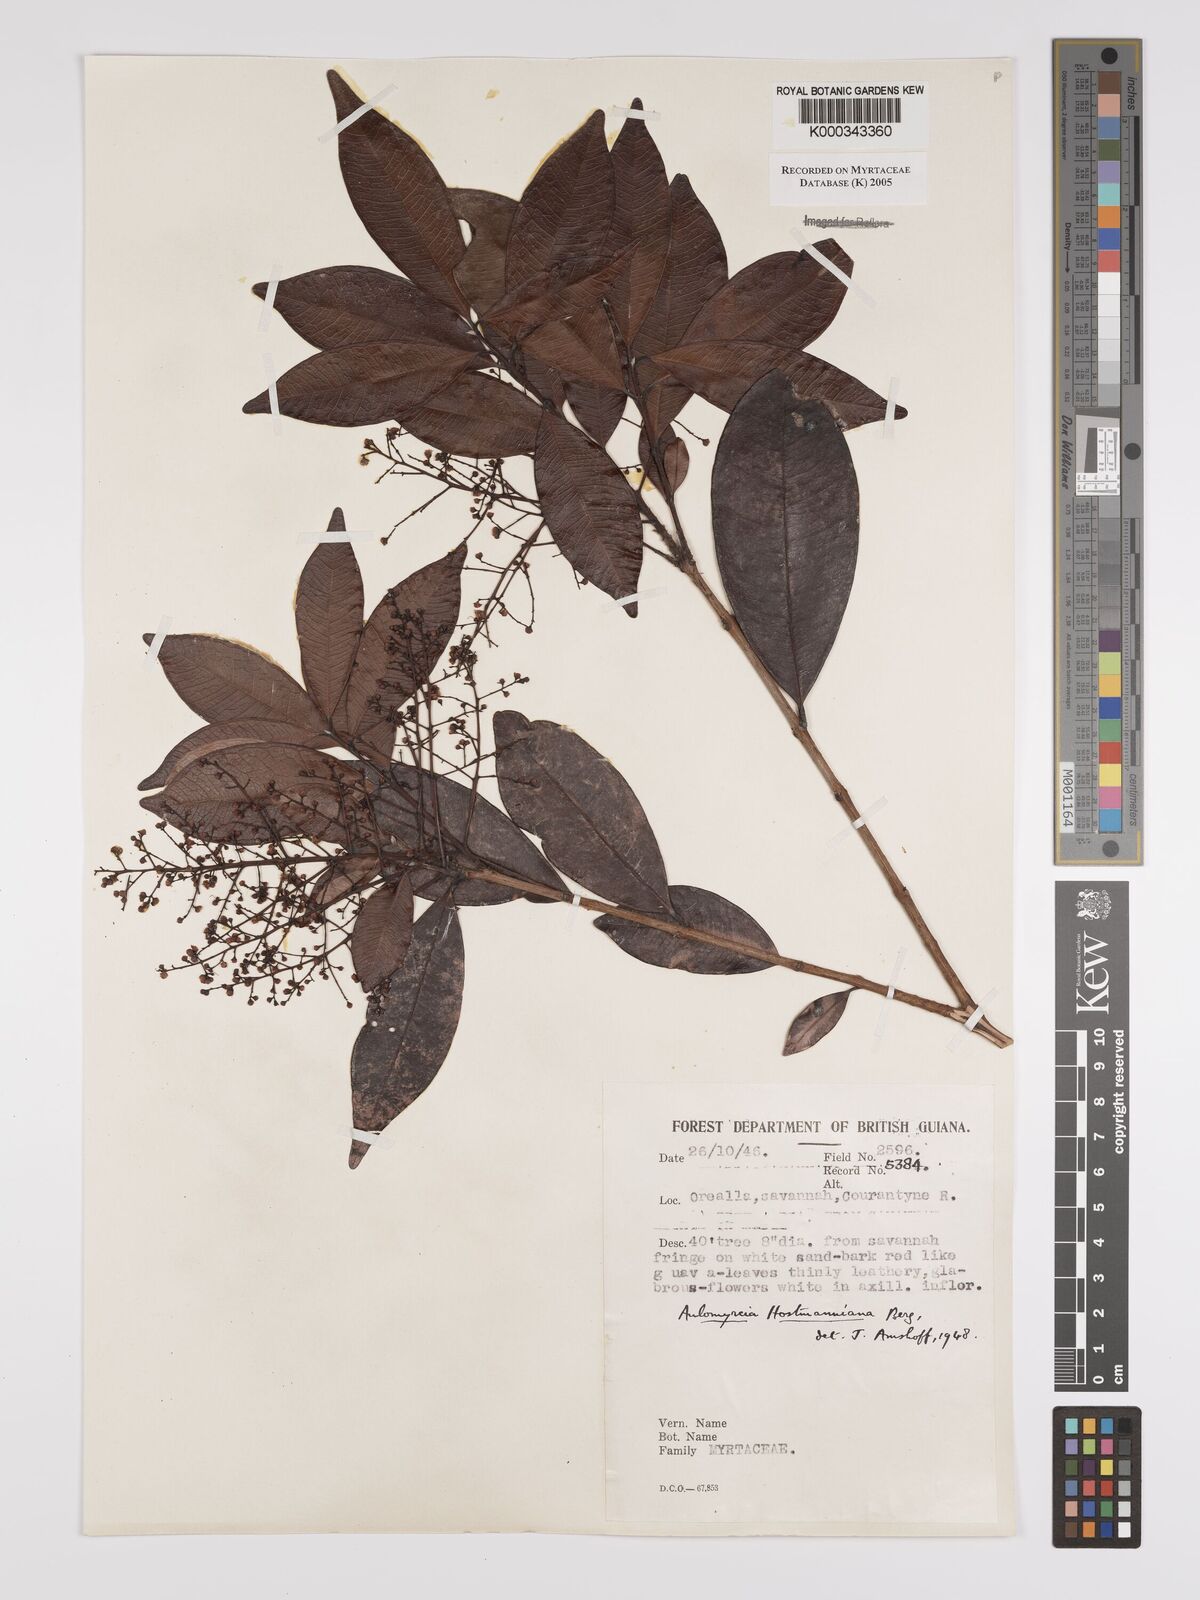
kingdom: Plantae
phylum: Tracheophyta
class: Magnoliopsida
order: Myrtales
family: Myrtaceae
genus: Myrcia
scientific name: Myrcia amazonica
